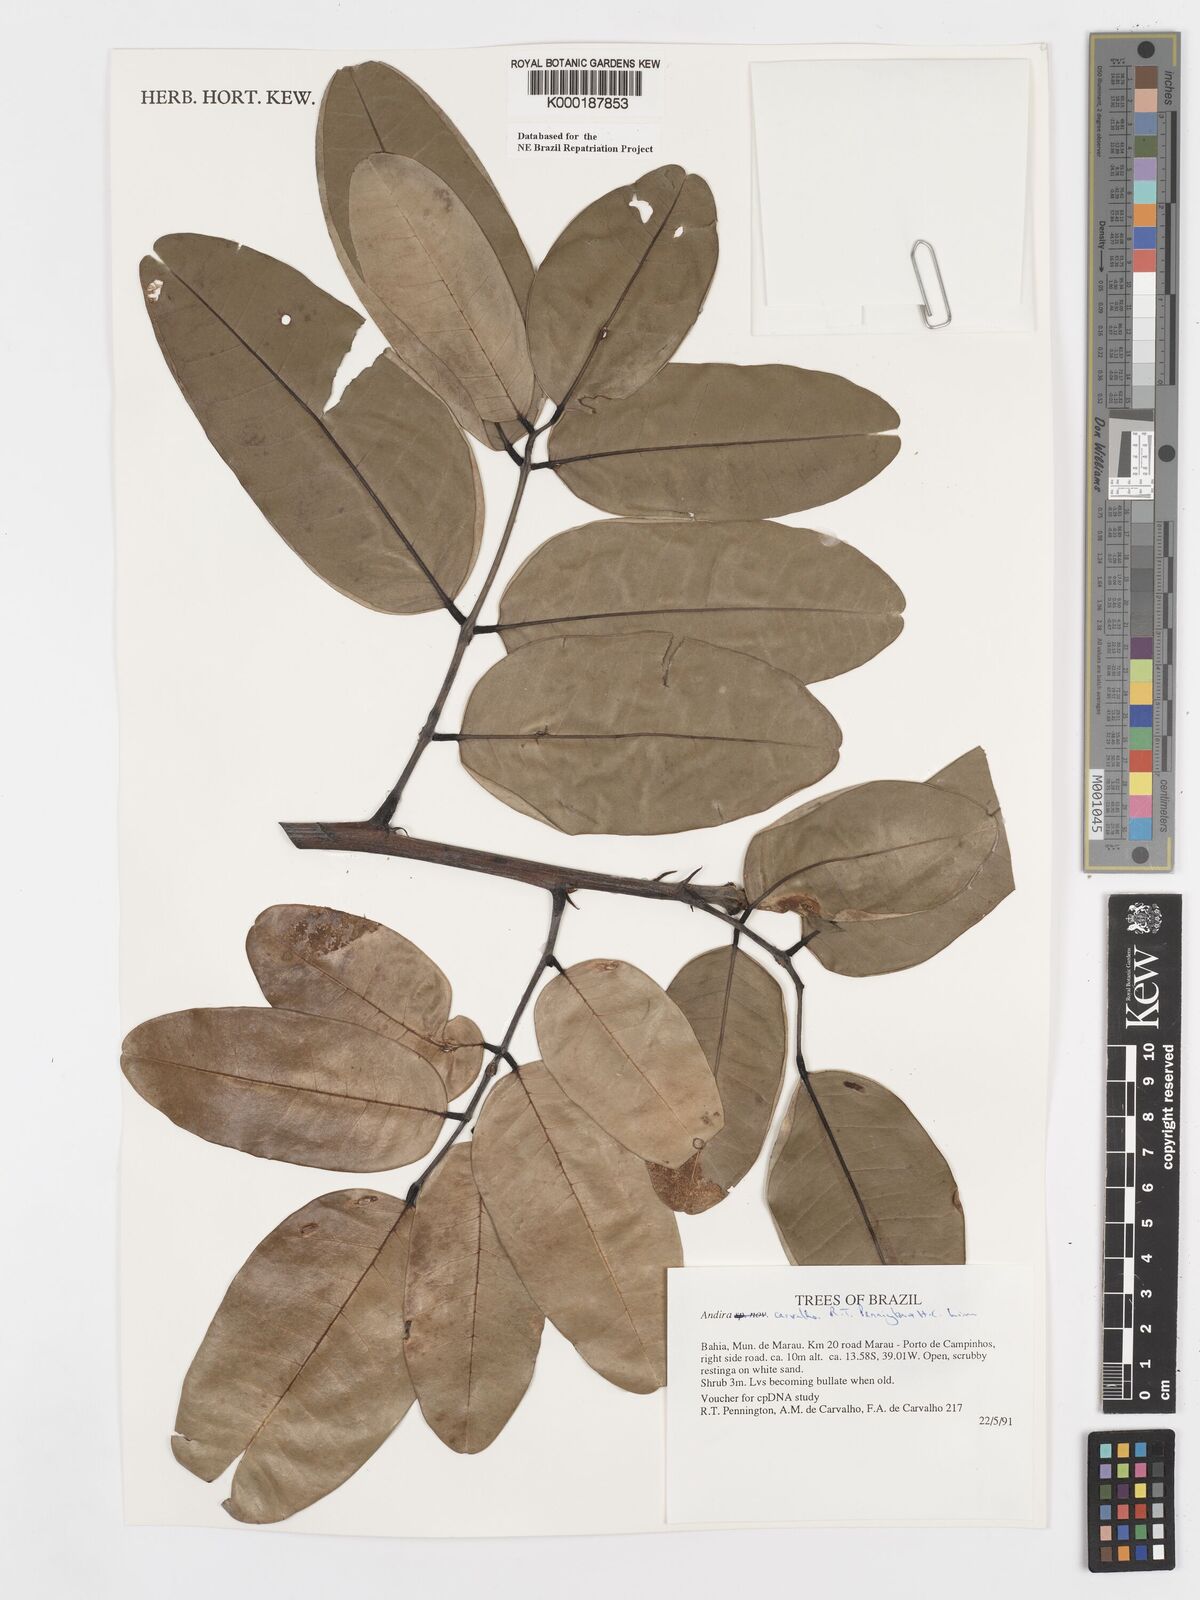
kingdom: Plantae
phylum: Tracheophyta
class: Magnoliopsida
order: Fabales
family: Fabaceae
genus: Andira
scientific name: Andira carvalhoi
